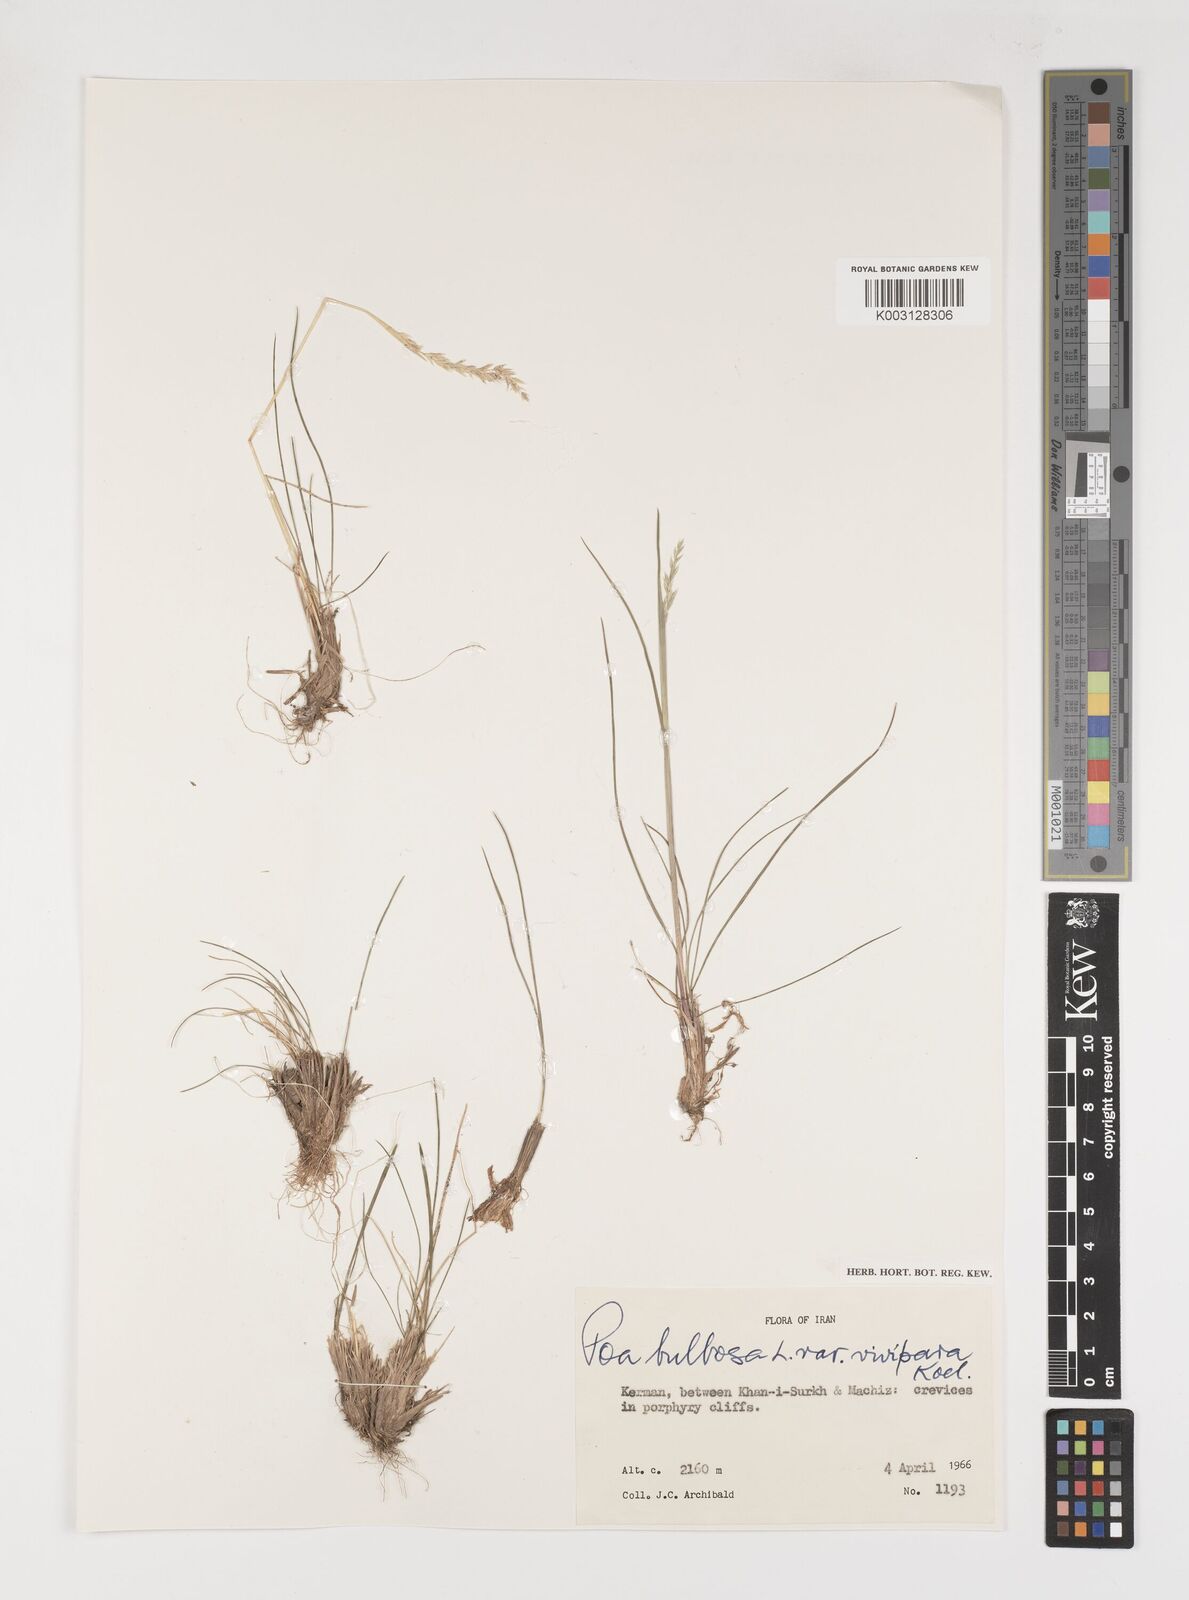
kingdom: Plantae
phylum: Tracheophyta
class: Liliopsida
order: Poales
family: Poaceae
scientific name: Poaceae
